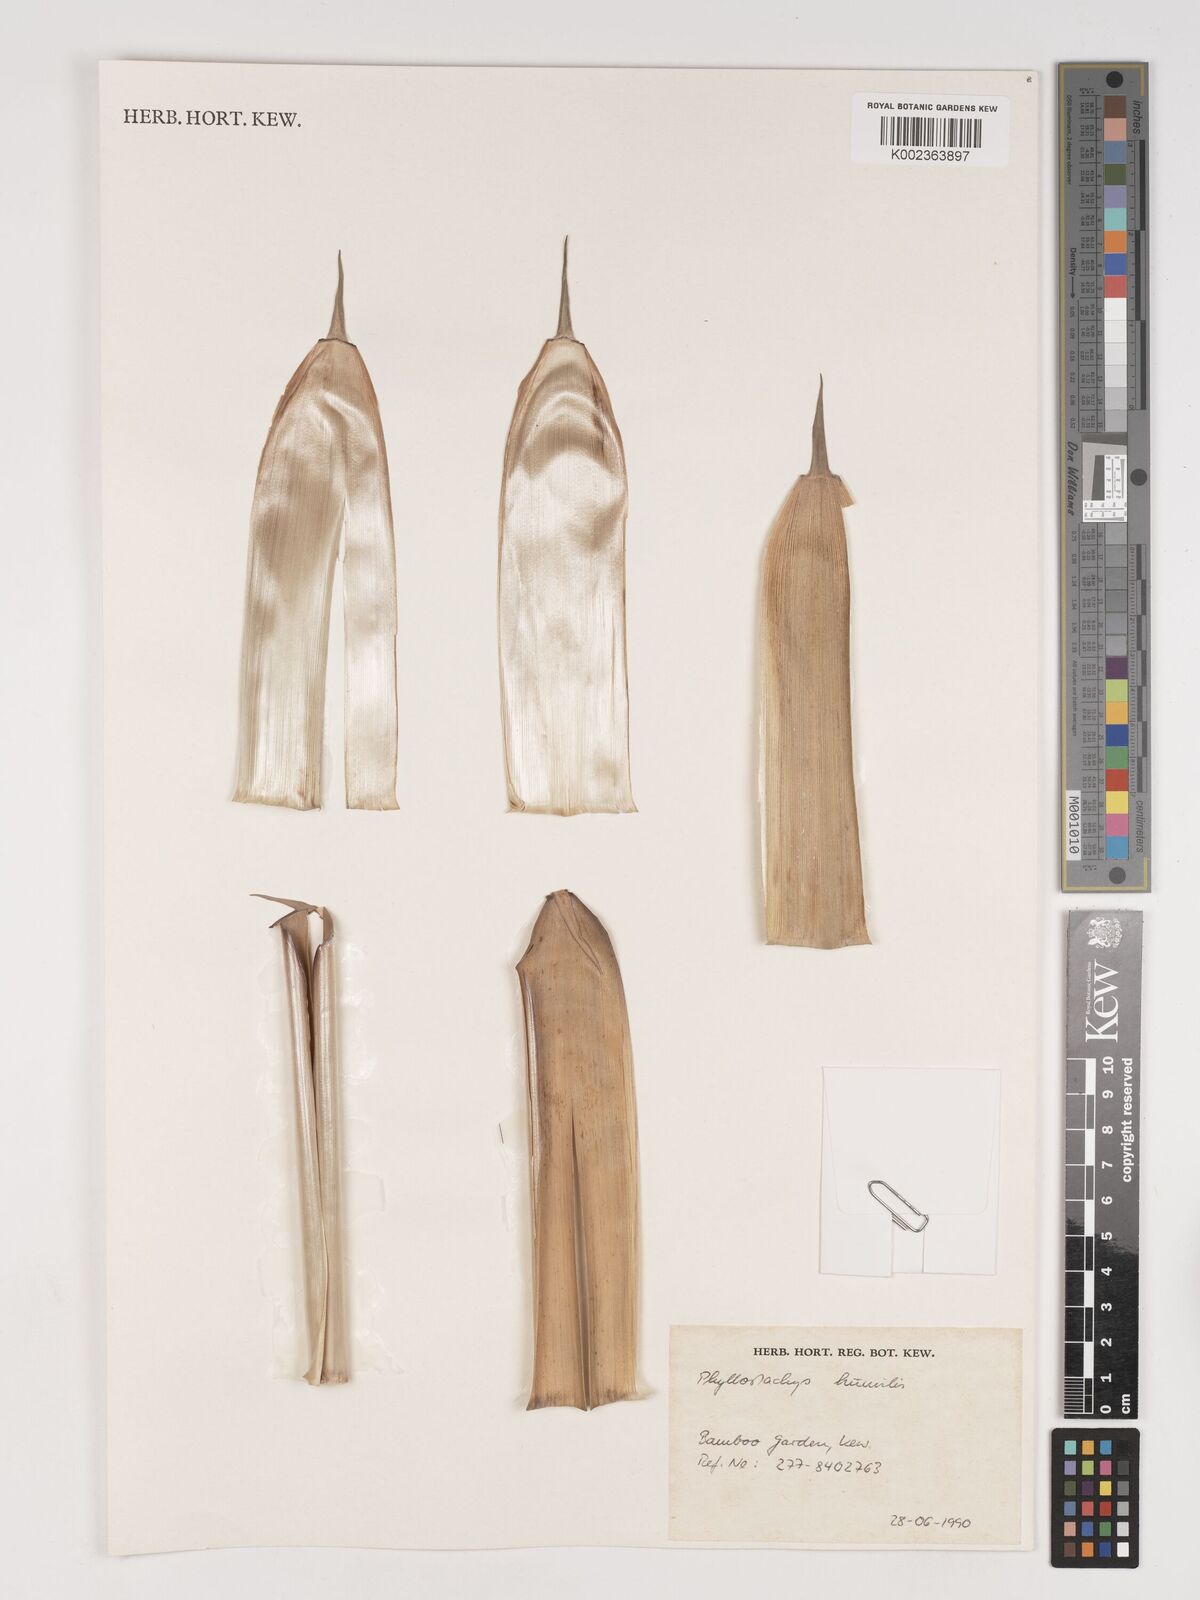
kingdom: Plantae
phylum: Tracheophyta
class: Liliopsida
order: Poales
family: Poaceae
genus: Phyllostachys
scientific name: Phyllostachys
